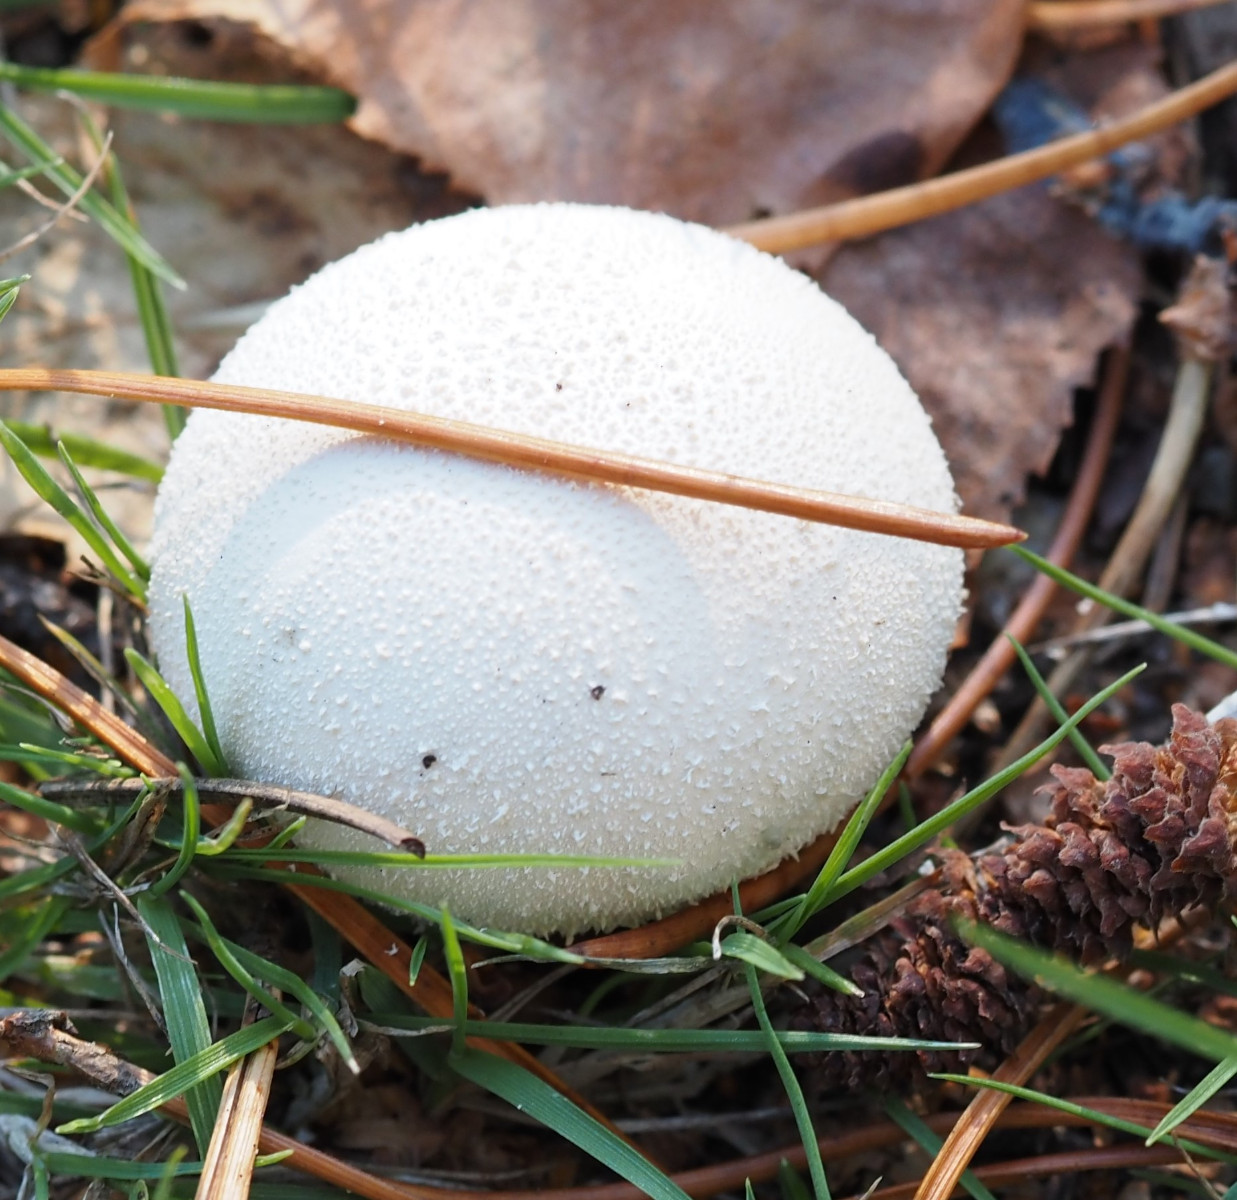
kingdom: Fungi
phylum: Basidiomycota
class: Agaricomycetes
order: Agaricales
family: Lycoperdaceae
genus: Lycoperdon
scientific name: Lycoperdon pratense
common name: flad støvbold
